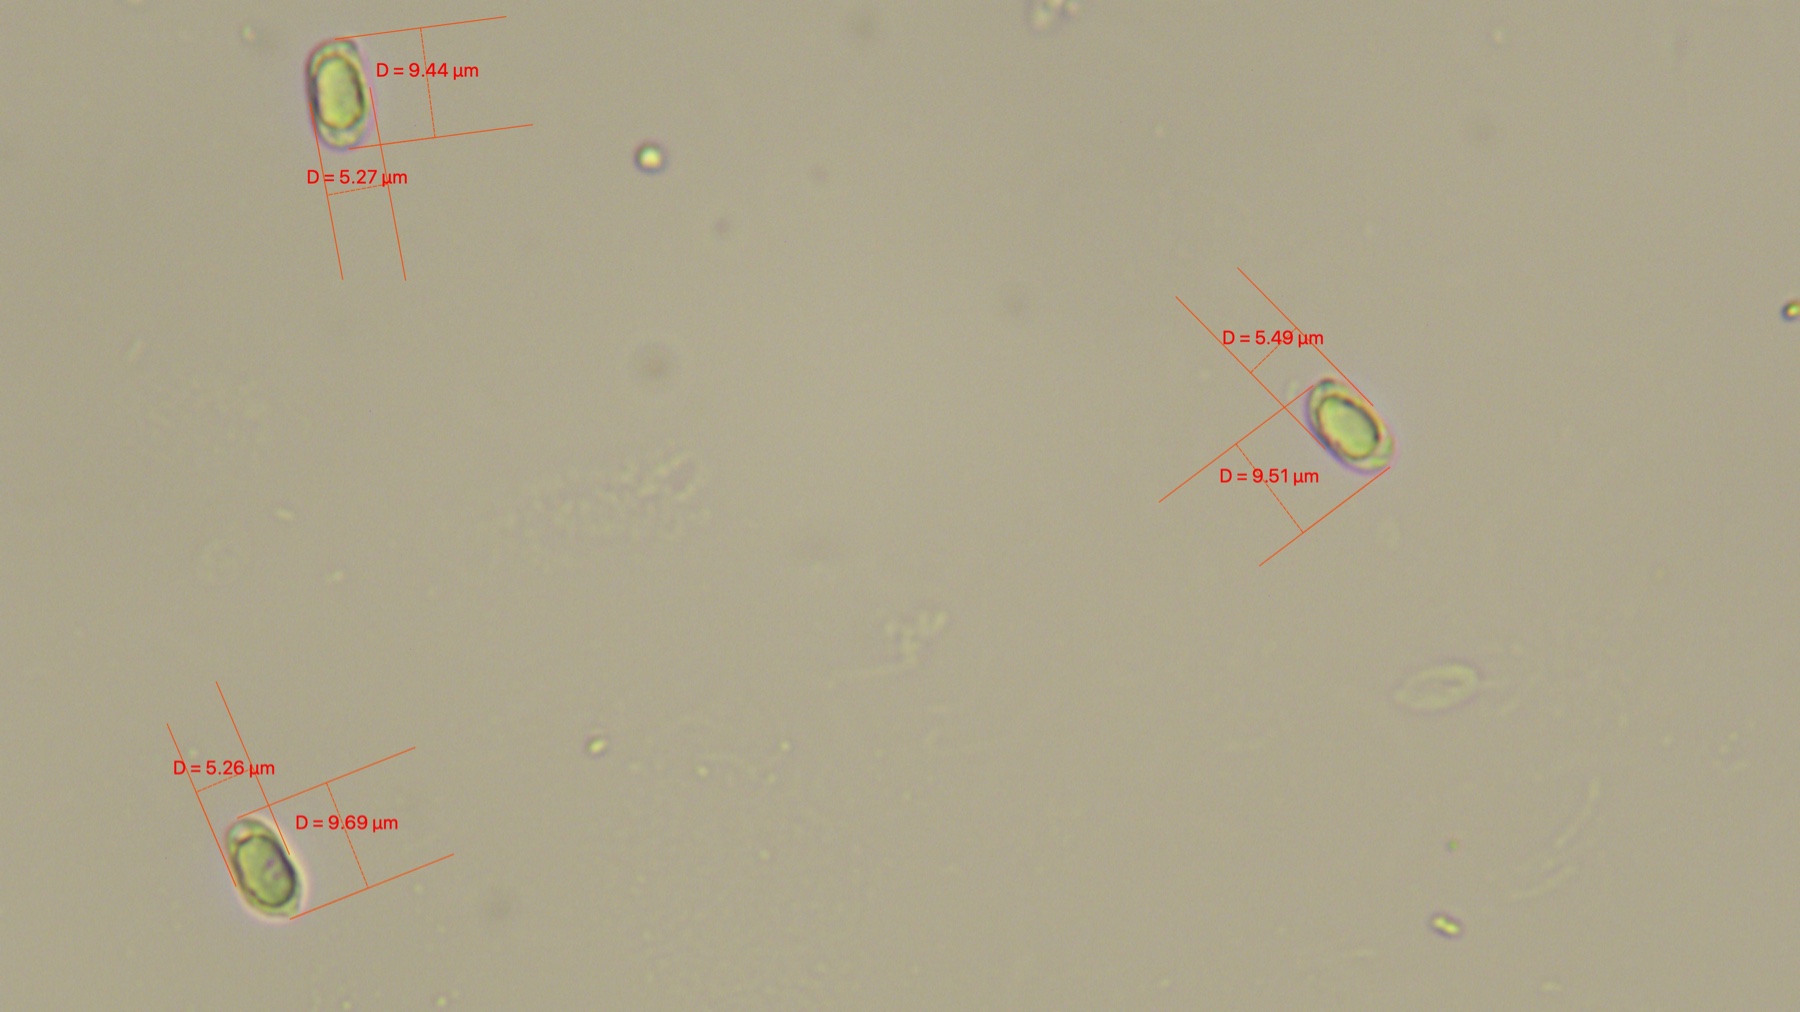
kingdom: Fungi
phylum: Basidiomycota
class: Agaricomycetes
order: Agaricales
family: Hygrophoraceae
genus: Hygrocybe
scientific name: Hygrocybe miniata
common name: mønje-vokshat
